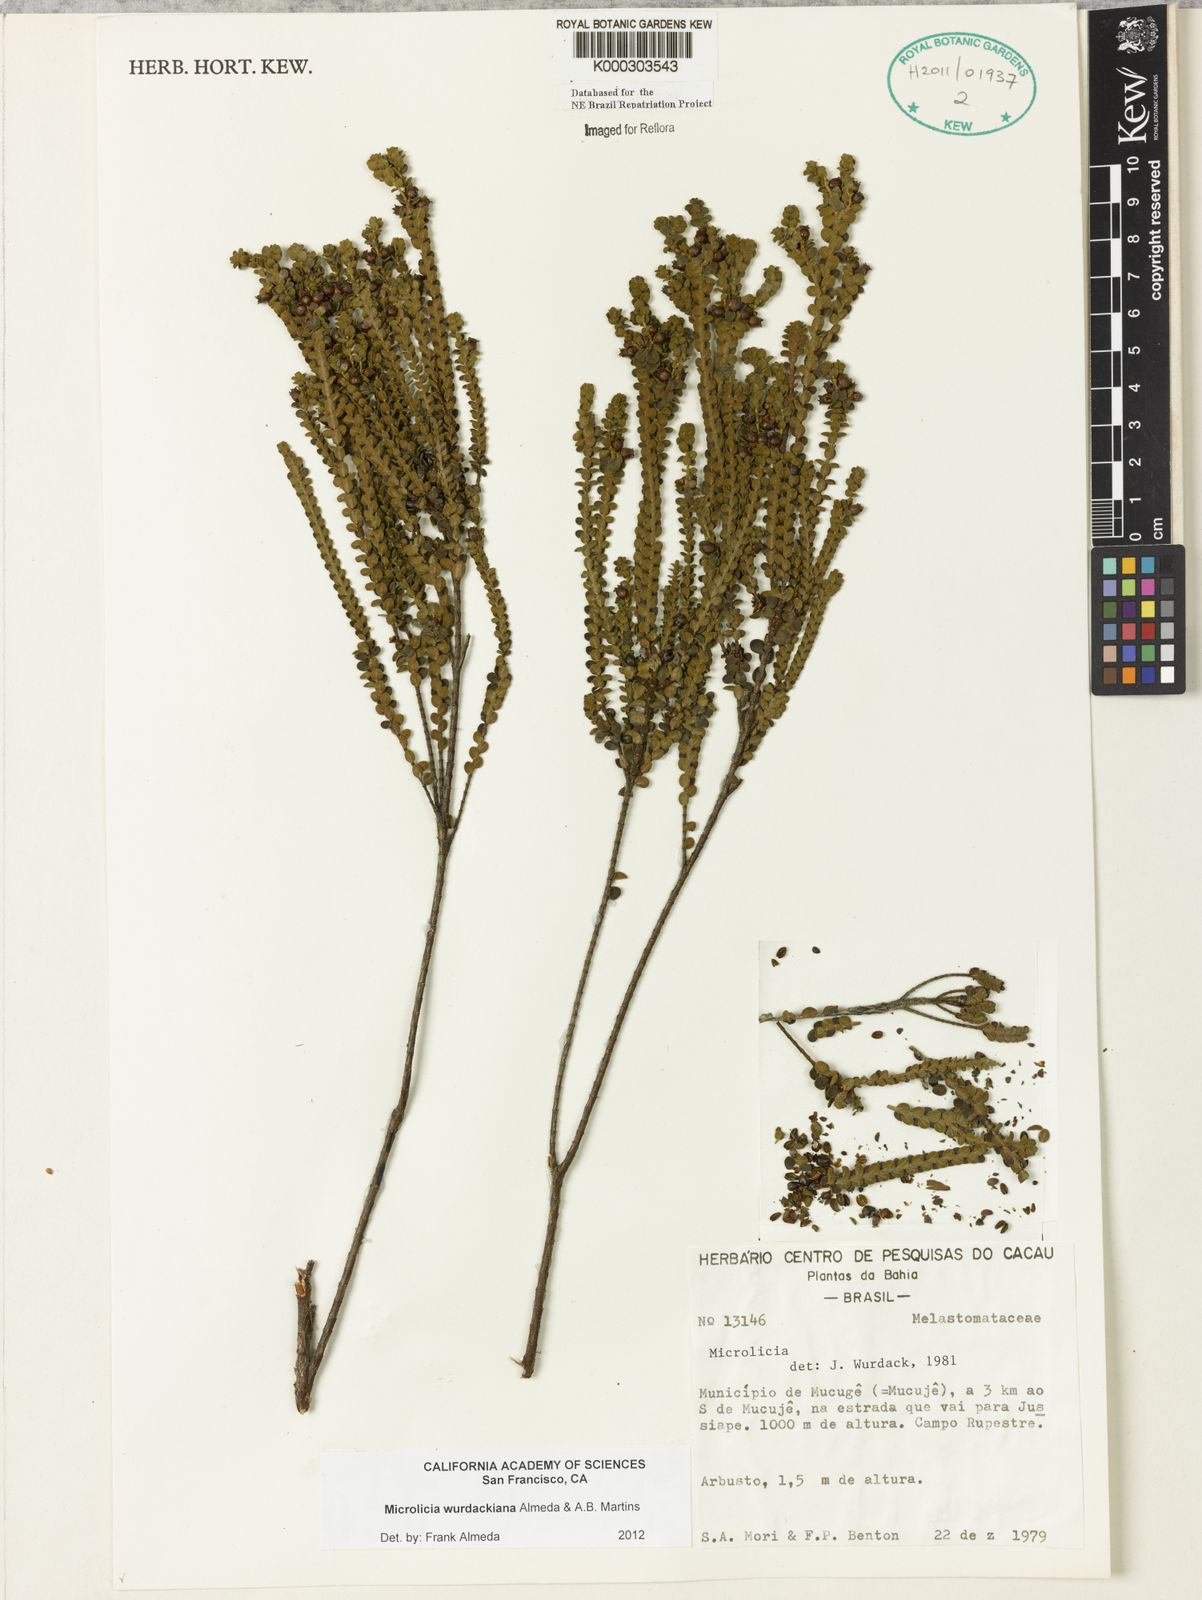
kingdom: Plantae
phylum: Tracheophyta
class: Magnoliopsida
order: Myrtales
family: Melastomataceae
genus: Microlicia
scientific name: Microlicia wurdackiana
